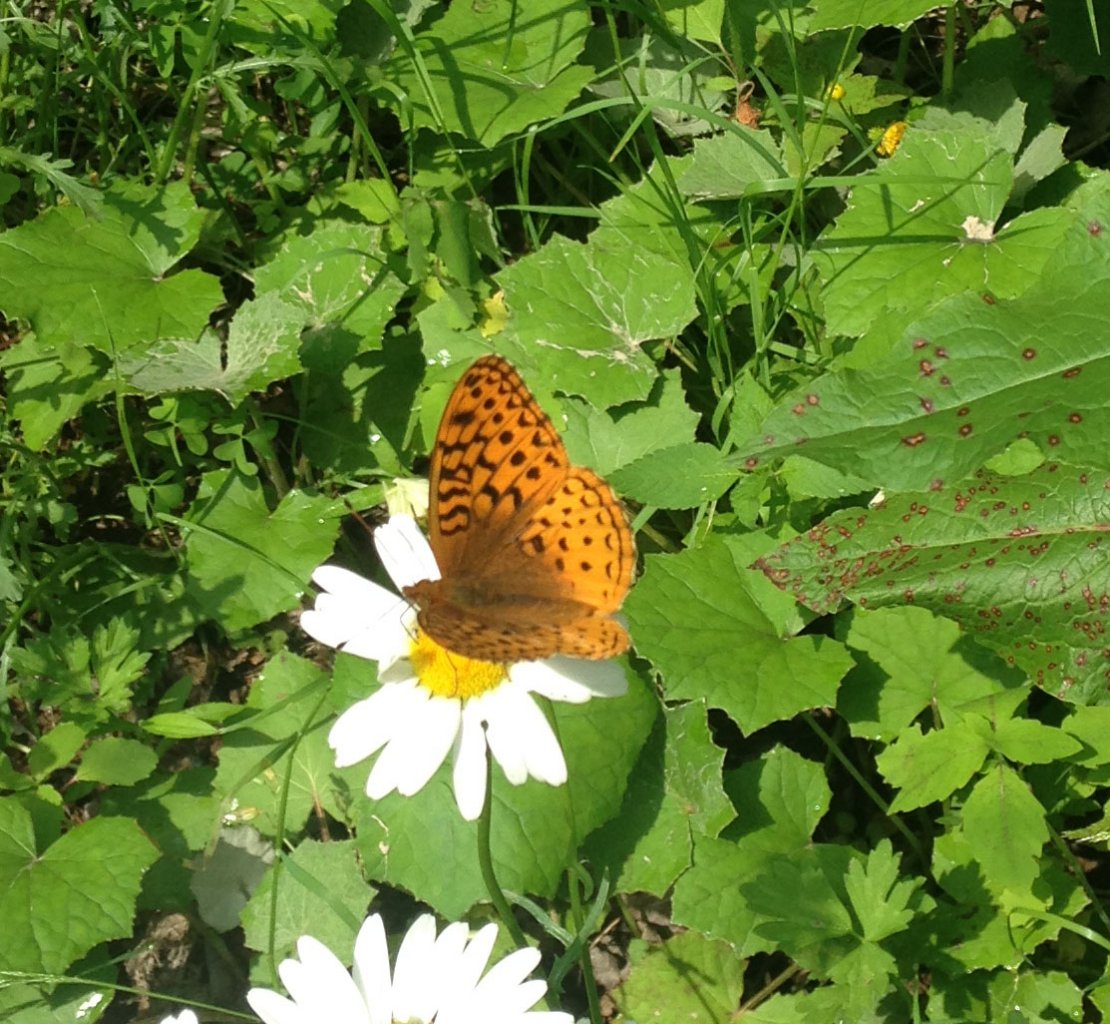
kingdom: Animalia
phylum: Arthropoda
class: Insecta
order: Lepidoptera
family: Nymphalidae
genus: Speyeria
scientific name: Speyeria cybele
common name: Great Spangled Fritillary
